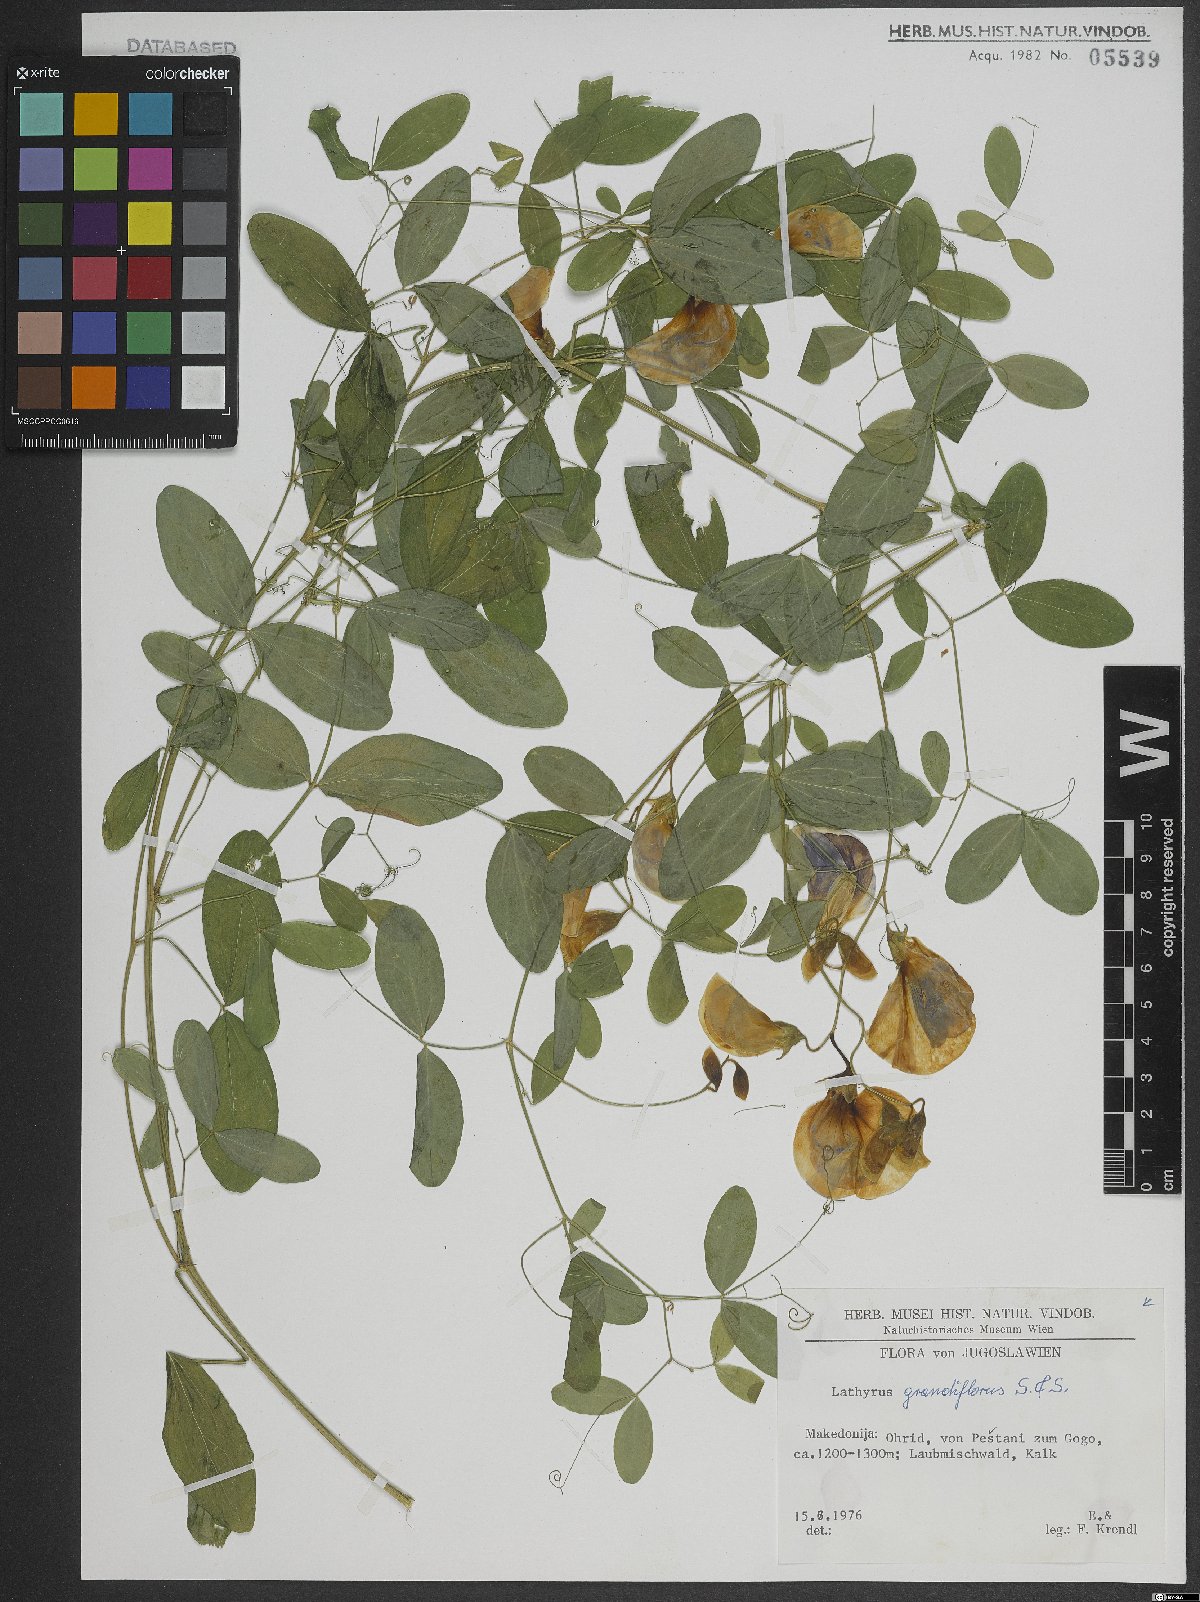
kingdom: Plantae
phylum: Tracheophyta
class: Magnoliopsida
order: Fabales
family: Fabaceae
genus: Lathyrus
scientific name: Lathyrus grandiflorus
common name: Two-flowered everlasting-pea
